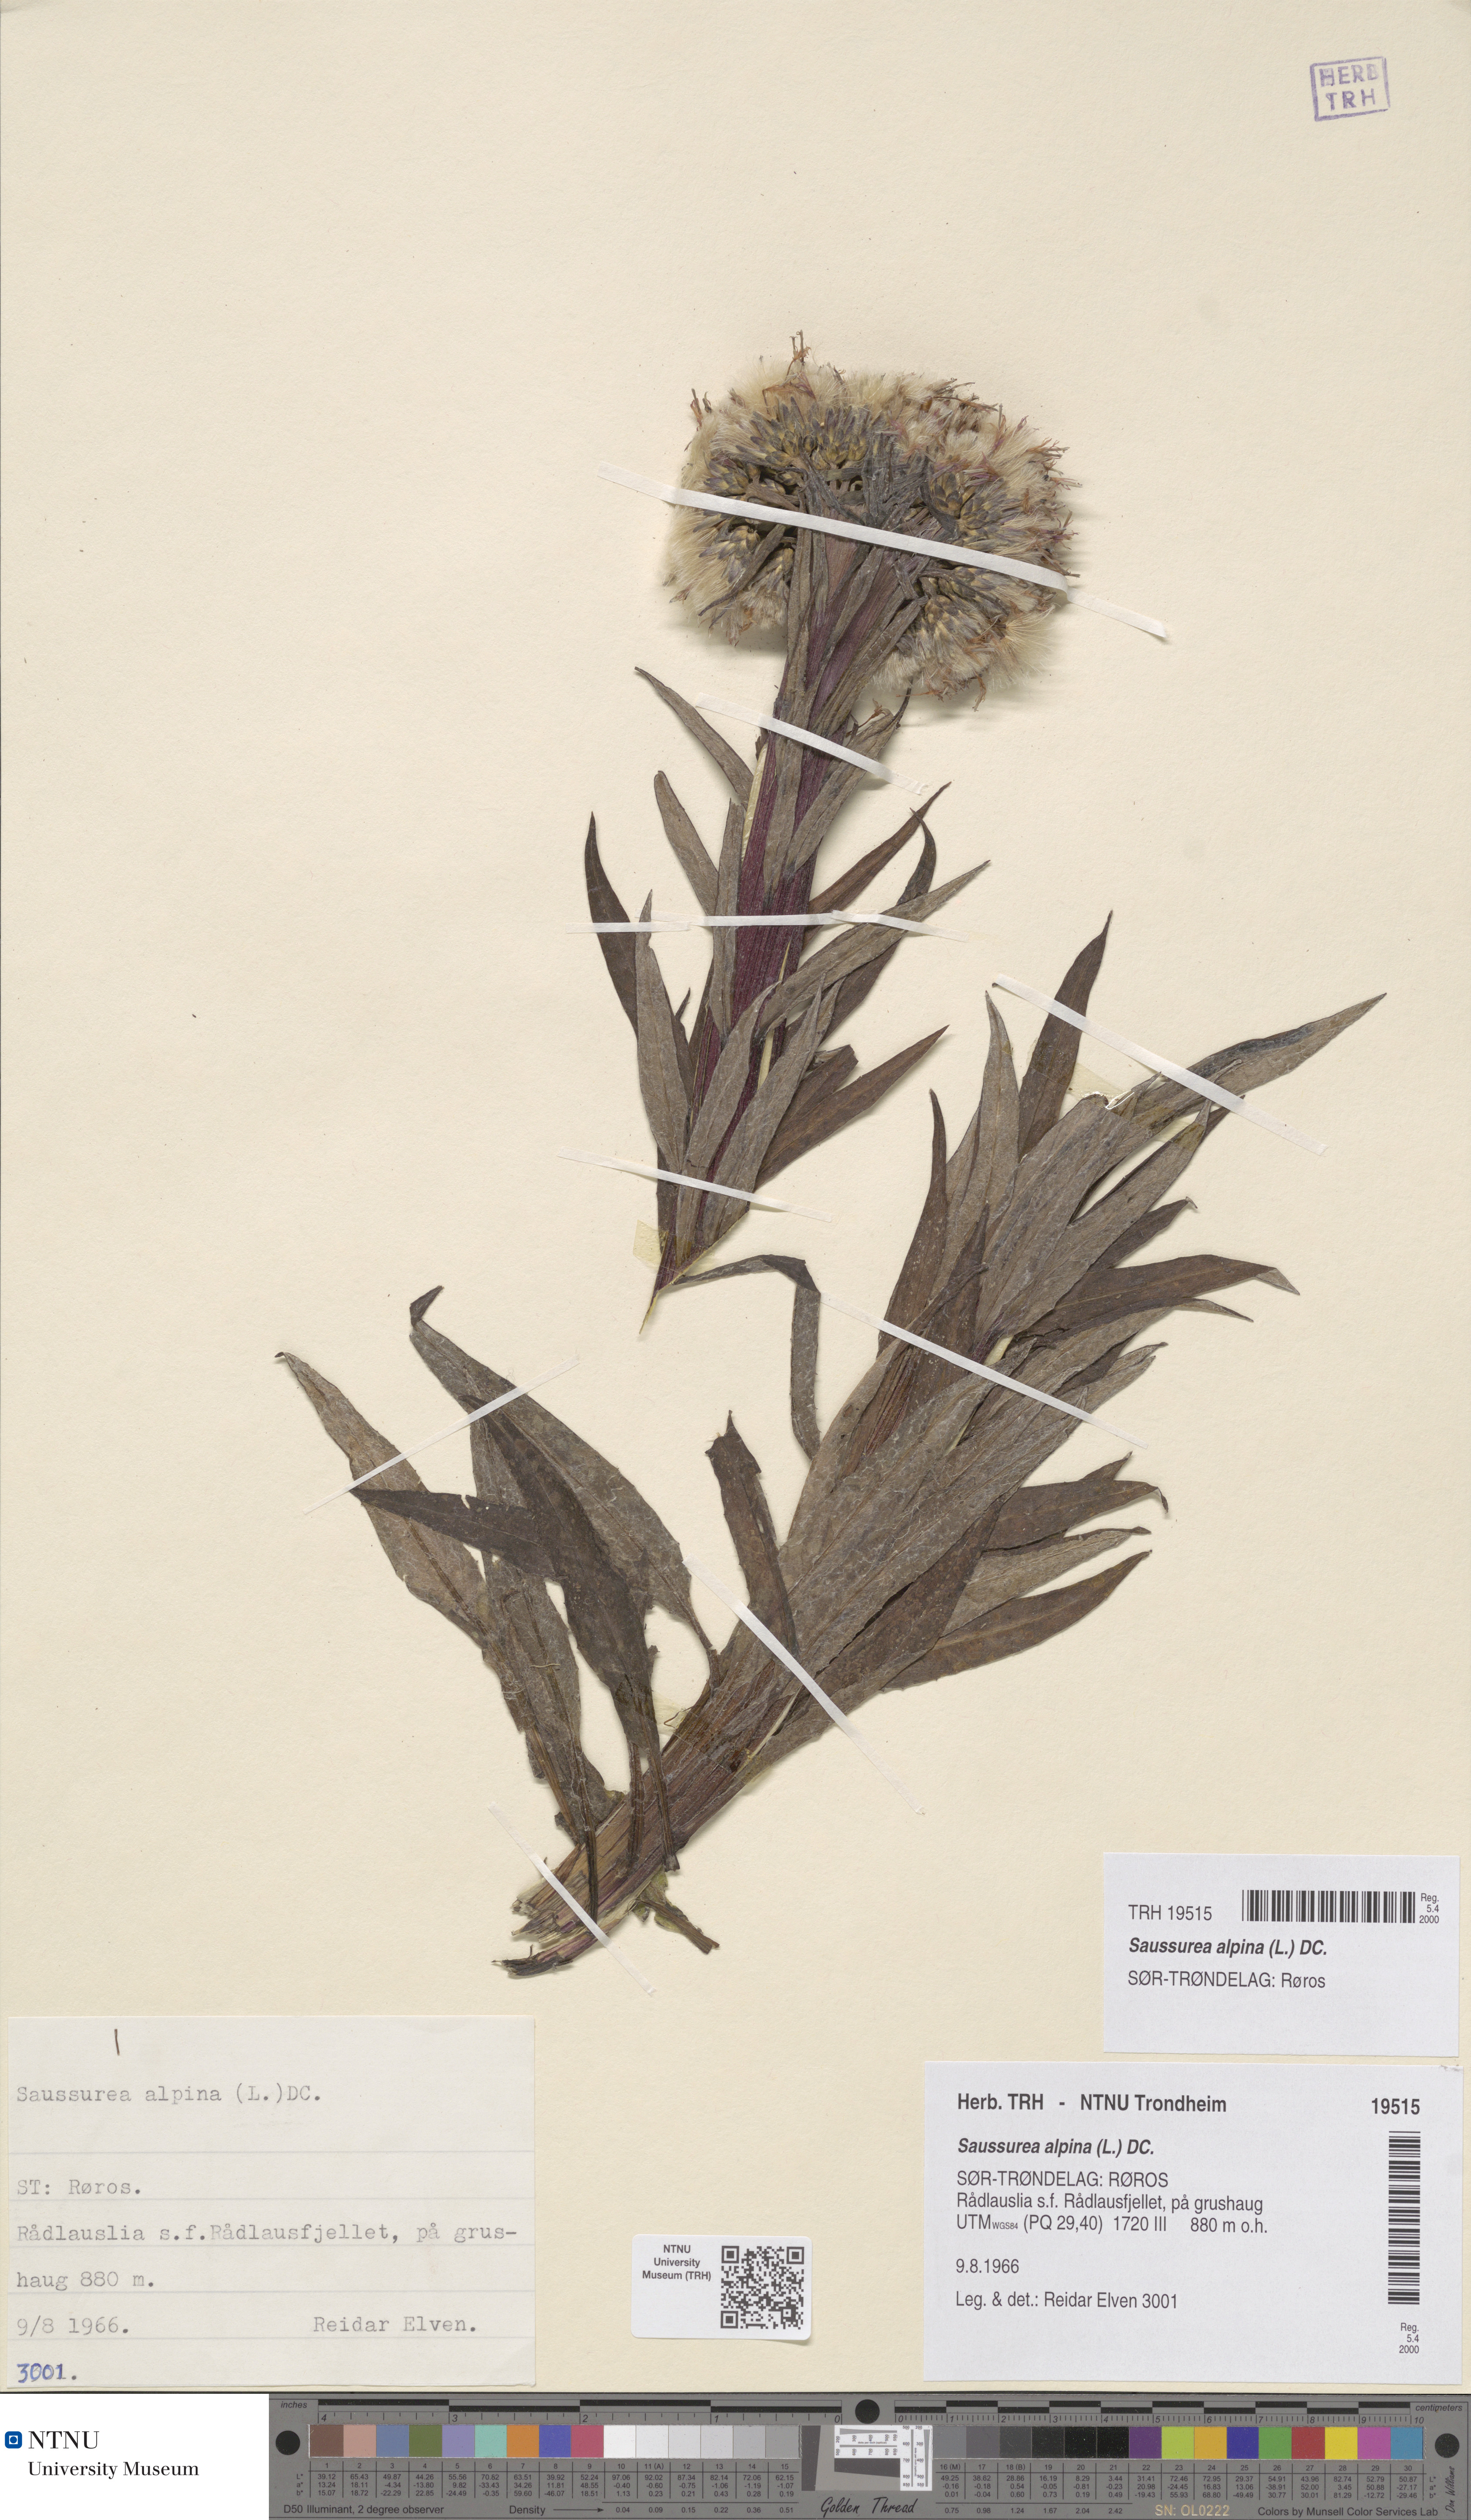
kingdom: Plantae
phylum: Tracheophyta
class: Magnoliopsida
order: Asterales
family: Asteraceae
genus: Saussurea
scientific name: Saussurea alpina
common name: Alpine saw-wort
